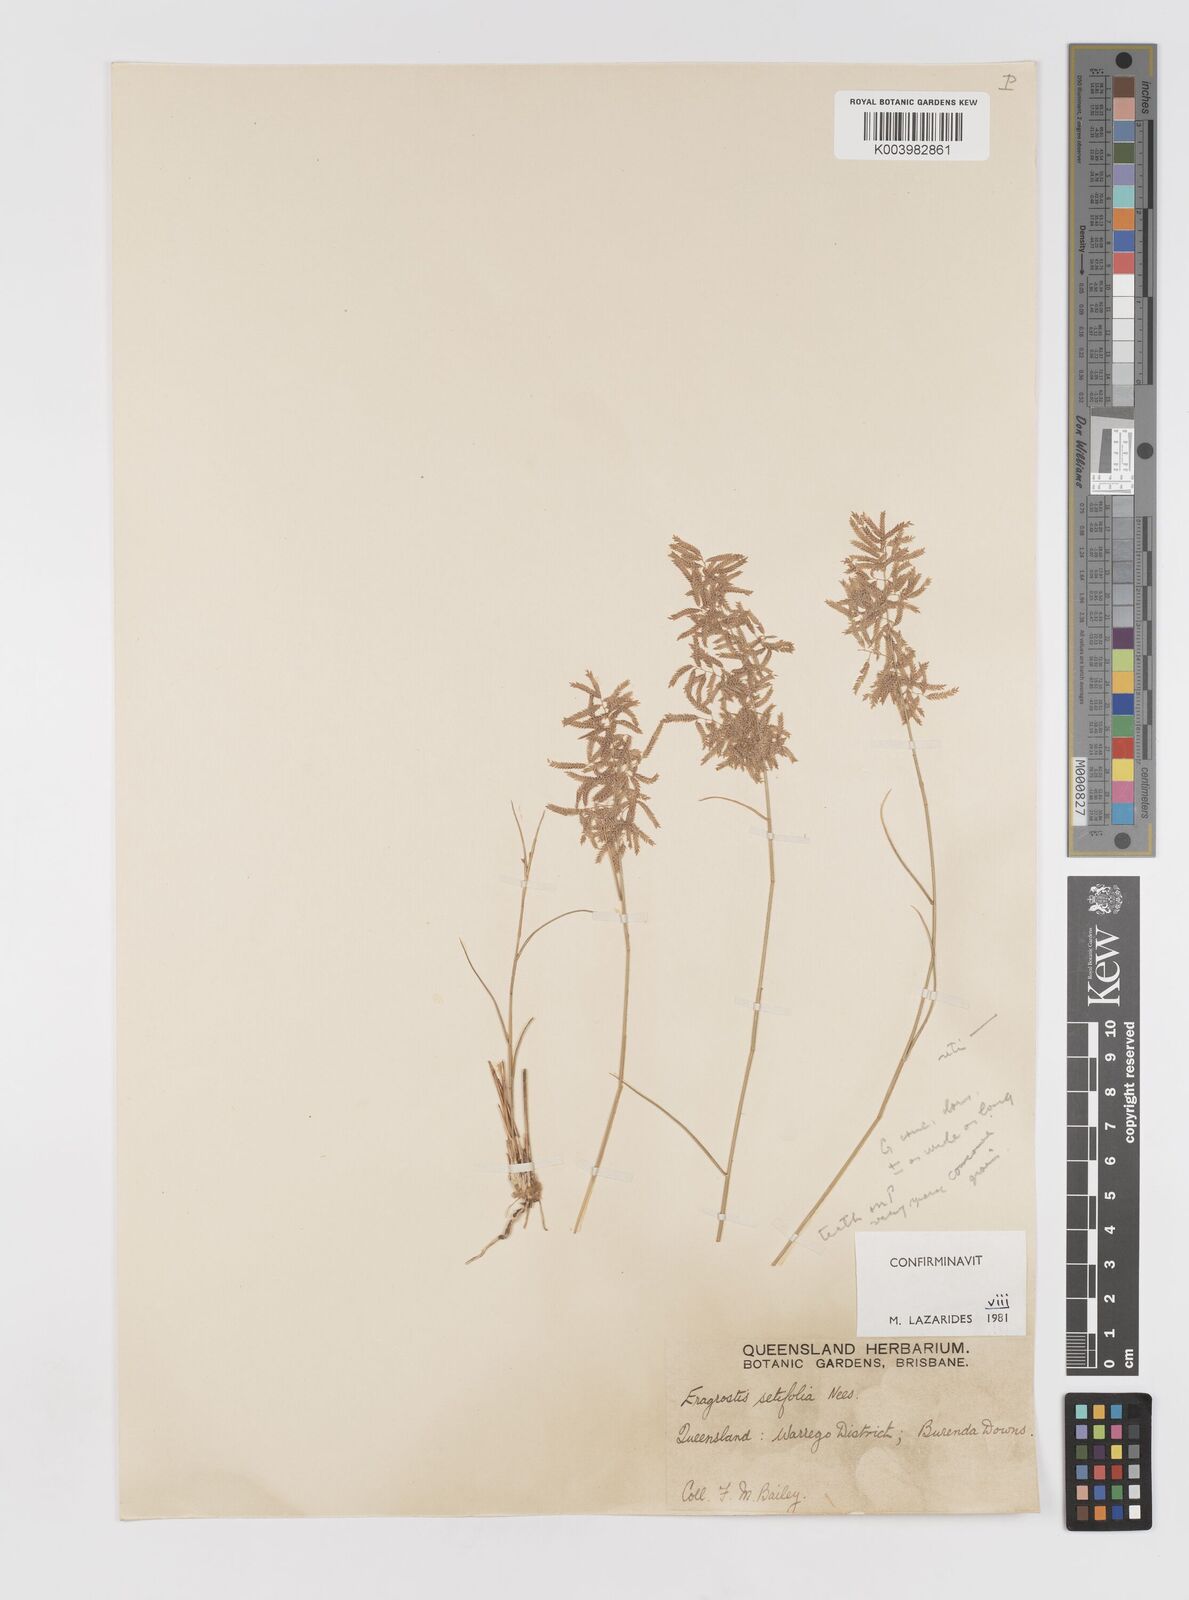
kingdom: Plantae
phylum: Tracheophyta
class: Liliopsida
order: Poales
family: Poaceae
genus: Eragrostis
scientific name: Eragrostis setifolia
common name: Bristleleaf lovegrass
